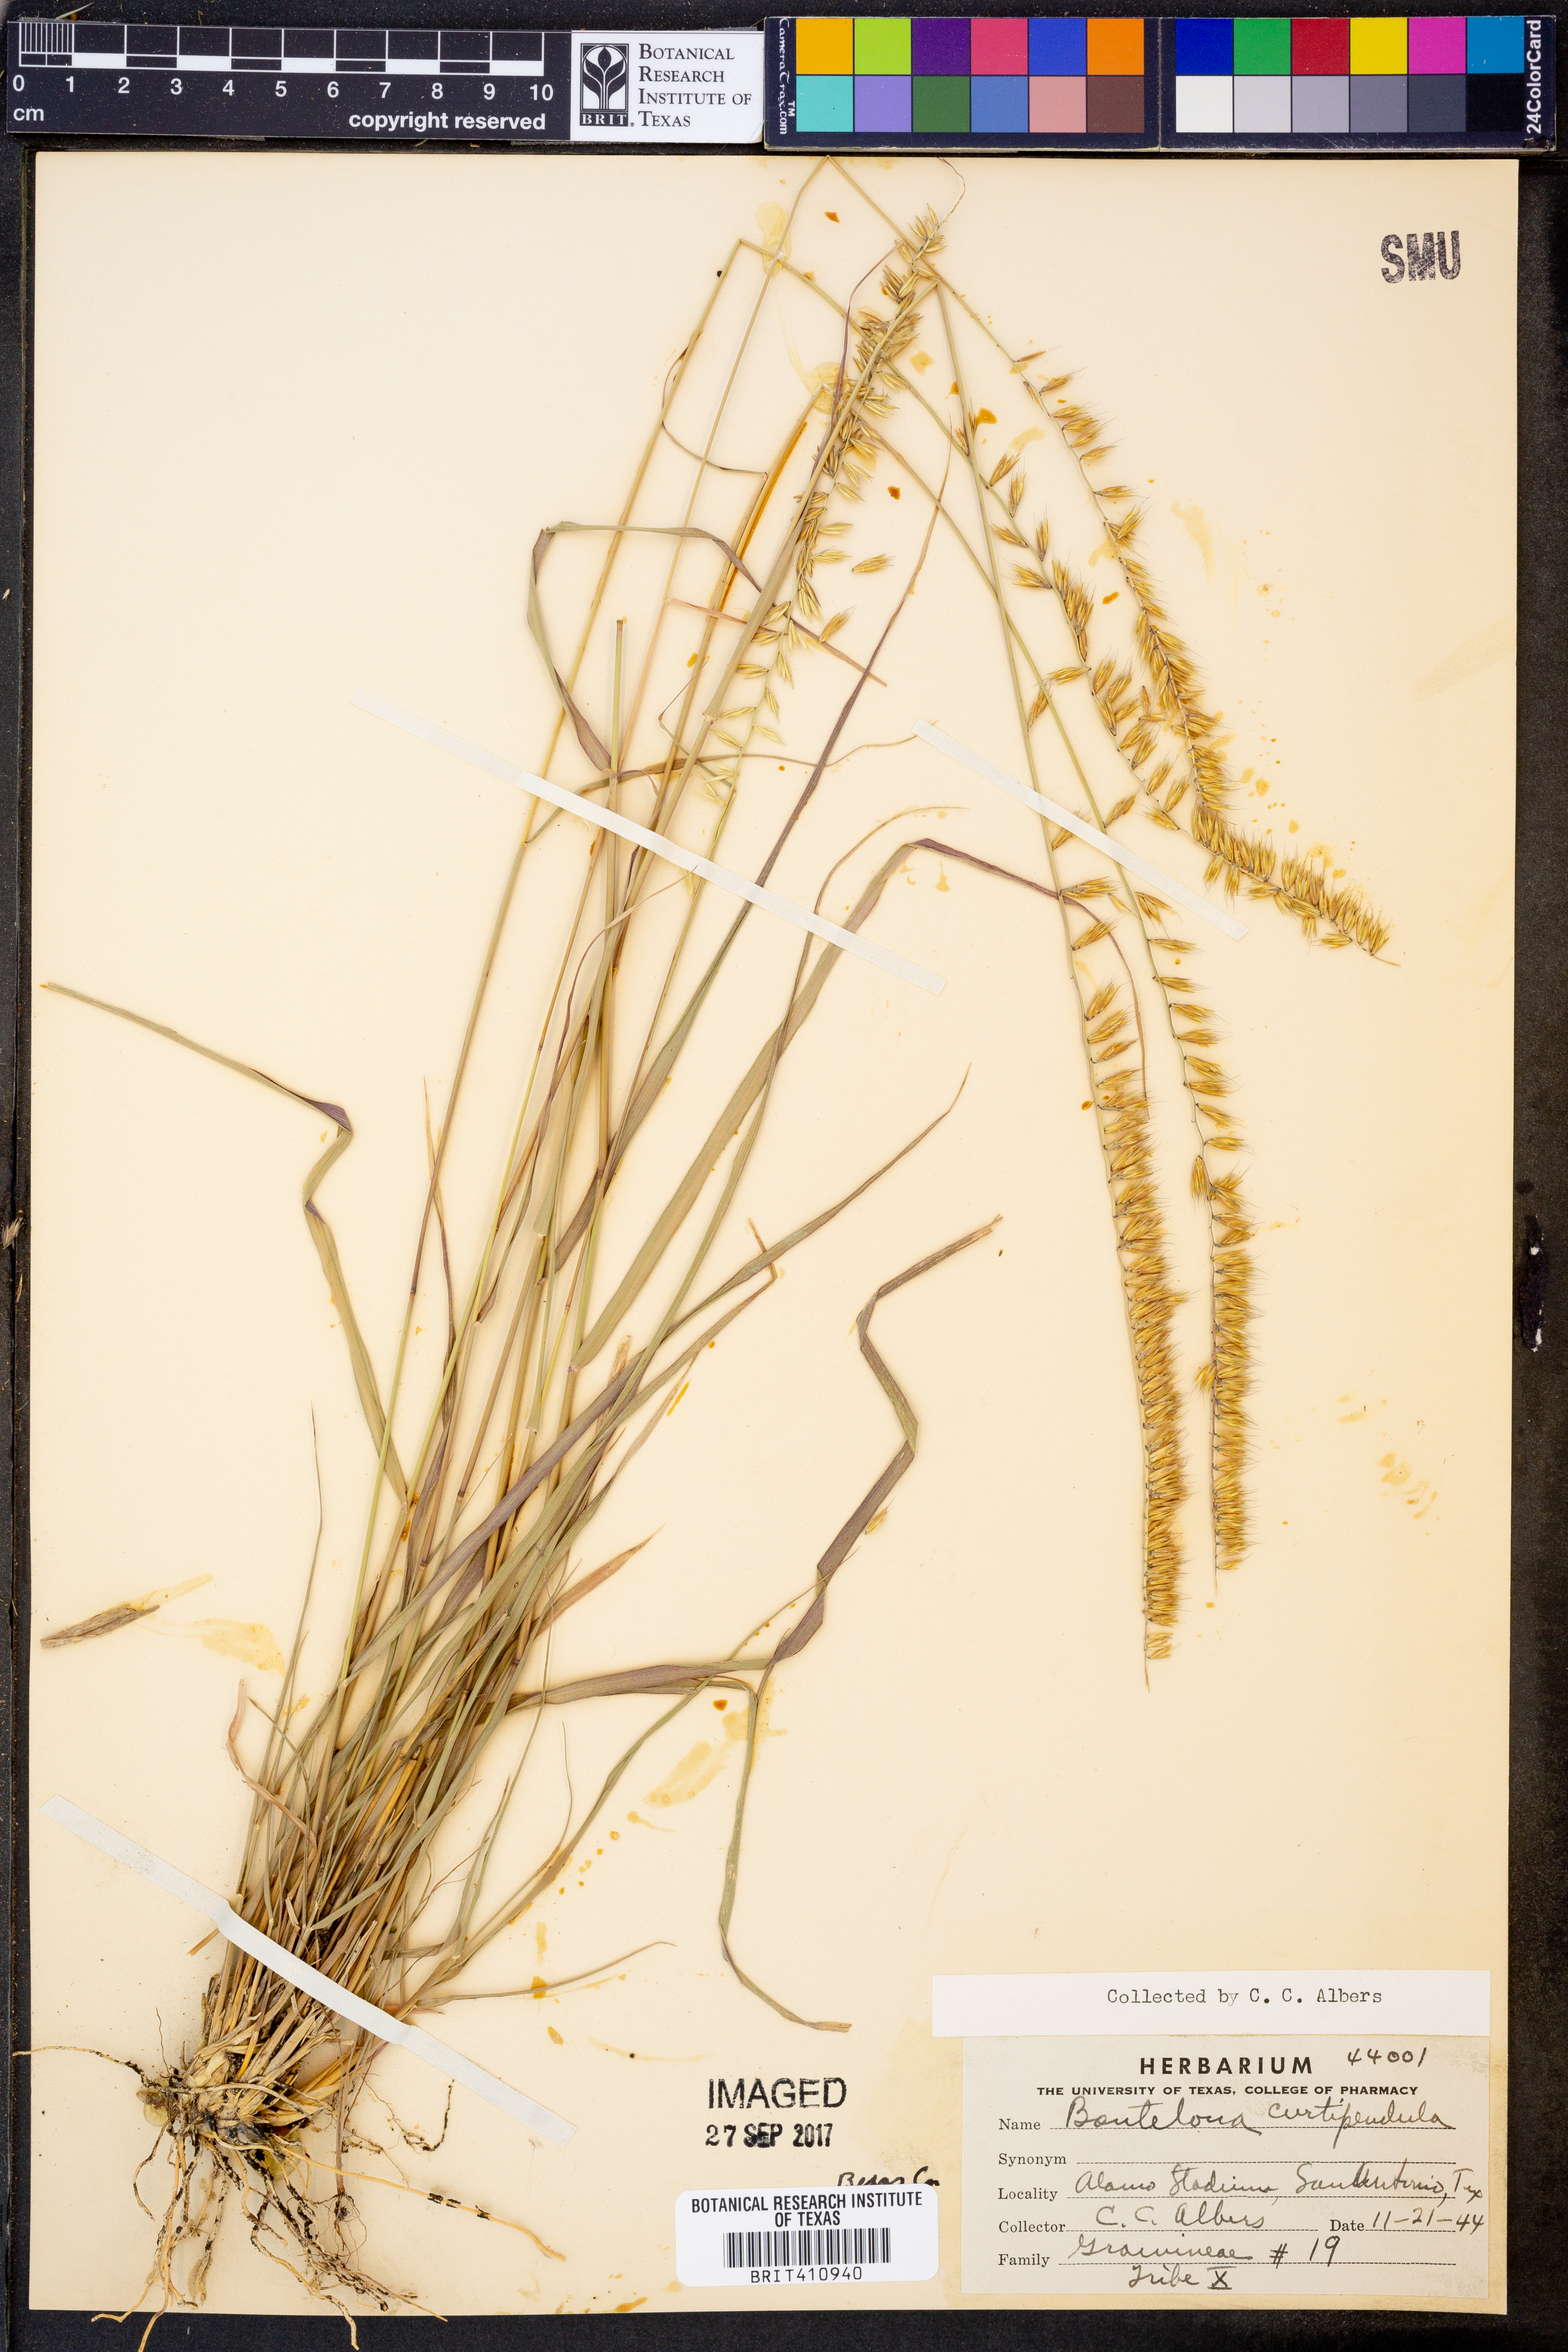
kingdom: Plantae
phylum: Tracheophyta
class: Liliopsida
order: Poales
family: Poaceae
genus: Bouteloua
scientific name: Bouteloua curtipendula
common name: Side-oats grama
